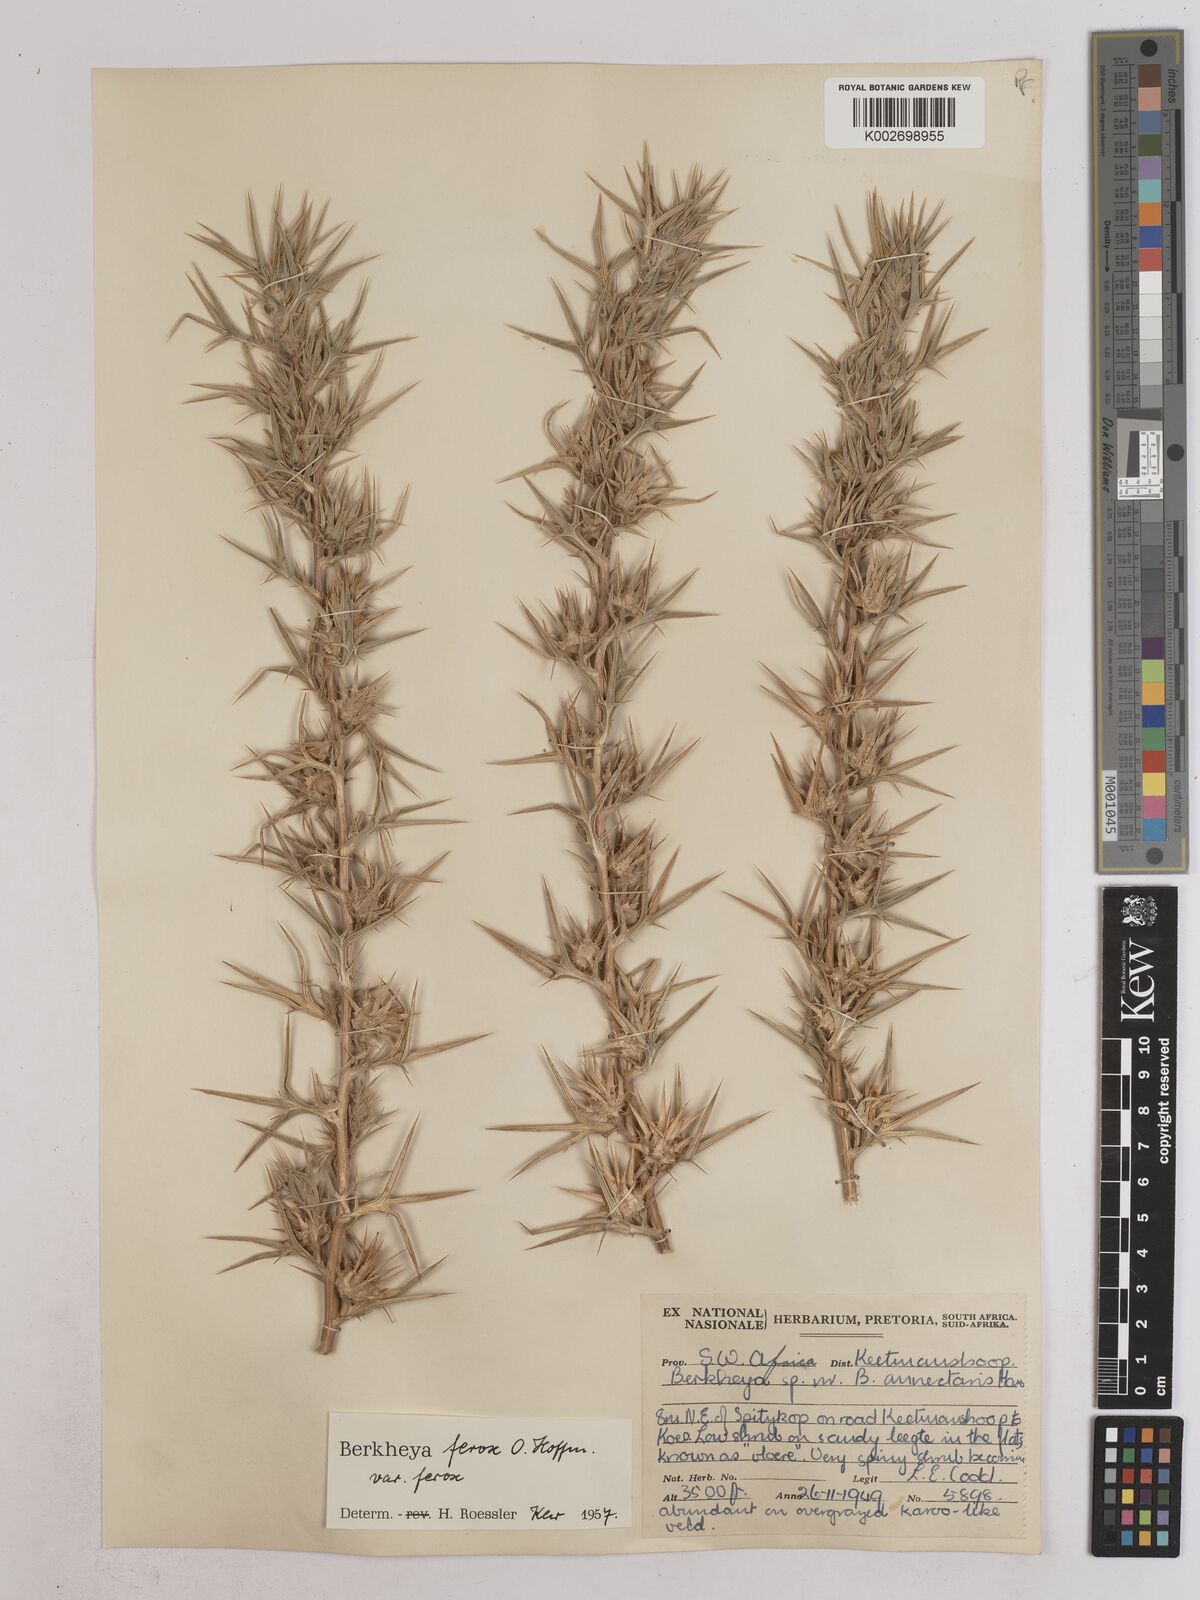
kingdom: Plantae
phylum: Tracheophyta
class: Magnoliopsida
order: Asterales
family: Asteraceae
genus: Berkheya
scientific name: Berkheya ferox
